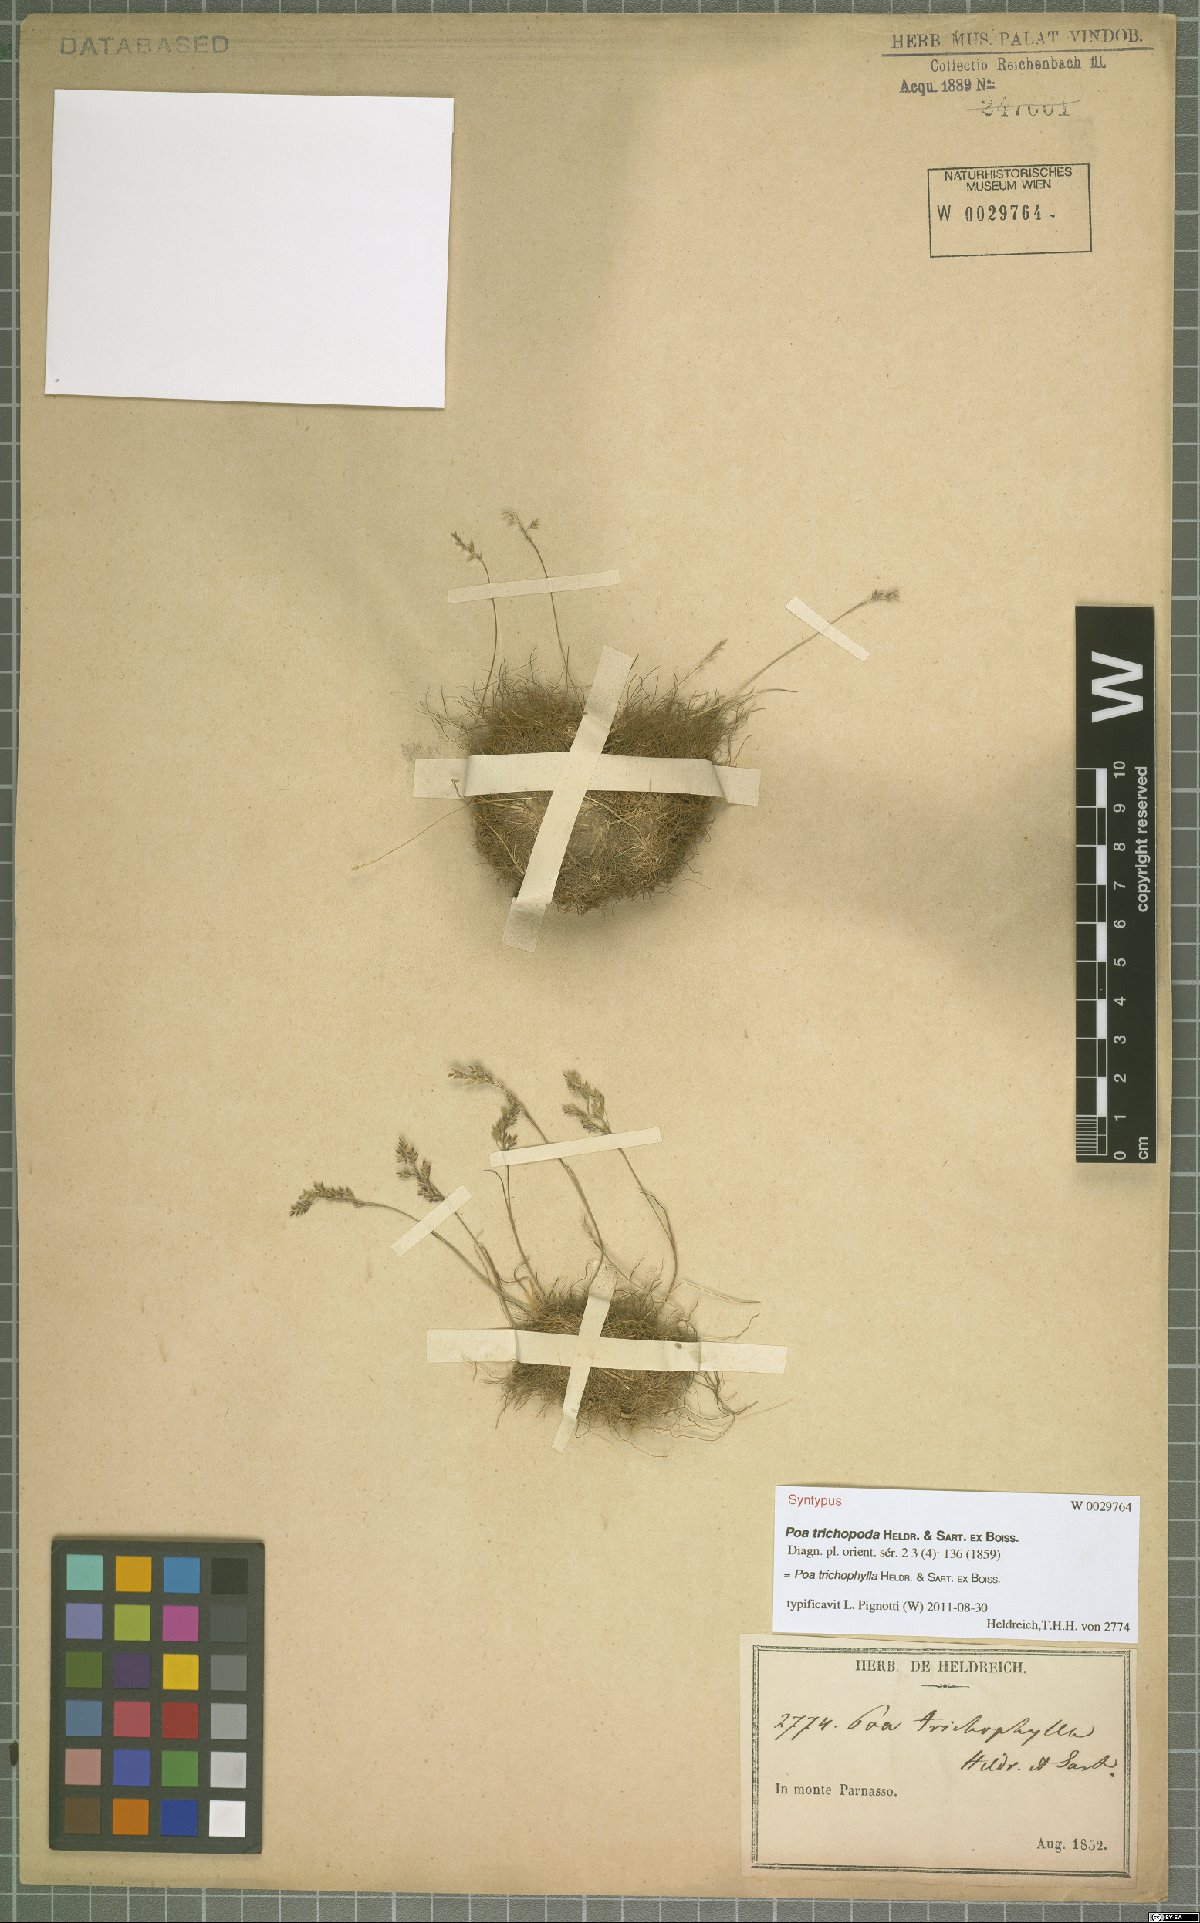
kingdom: Plantae
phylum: Tracheophyta
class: Liliopsida
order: Poales
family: Poaceae
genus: Poa
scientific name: Poa trichophylla
